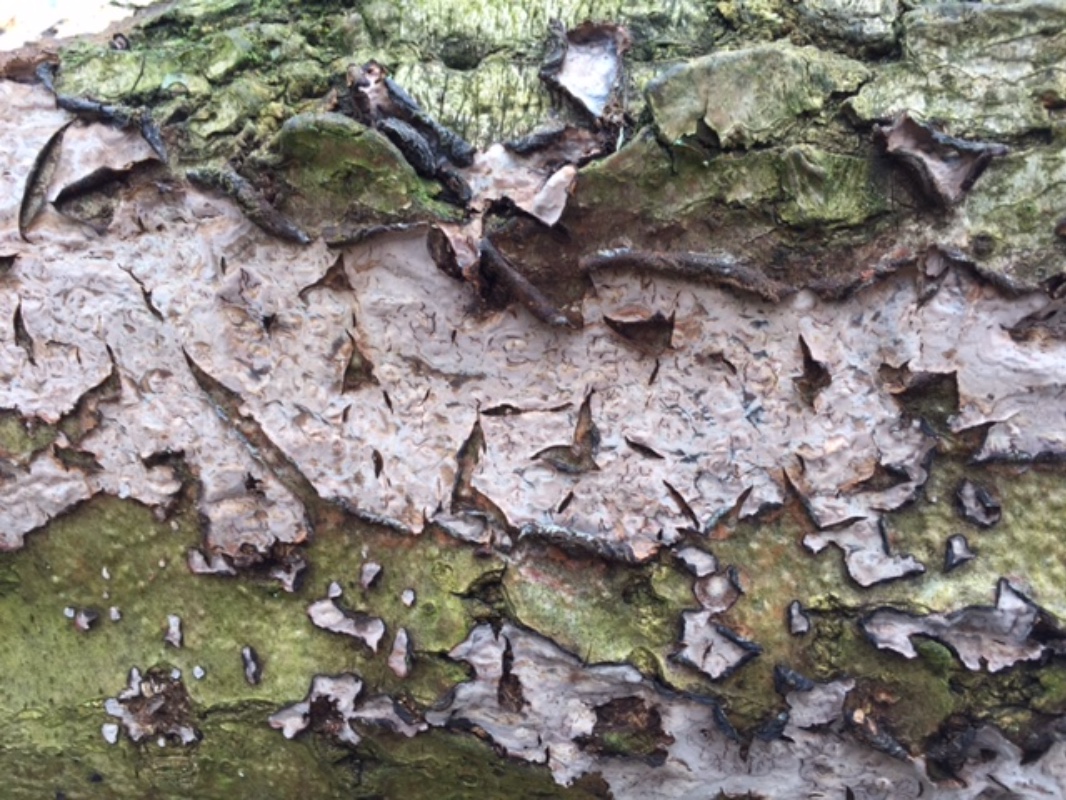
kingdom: Fungi
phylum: Basidiomycota
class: Agaricomycetes
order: Russulales
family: Peniophoraceae
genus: Peniophora
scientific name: Peniophora quercina
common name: ege-voksskind
